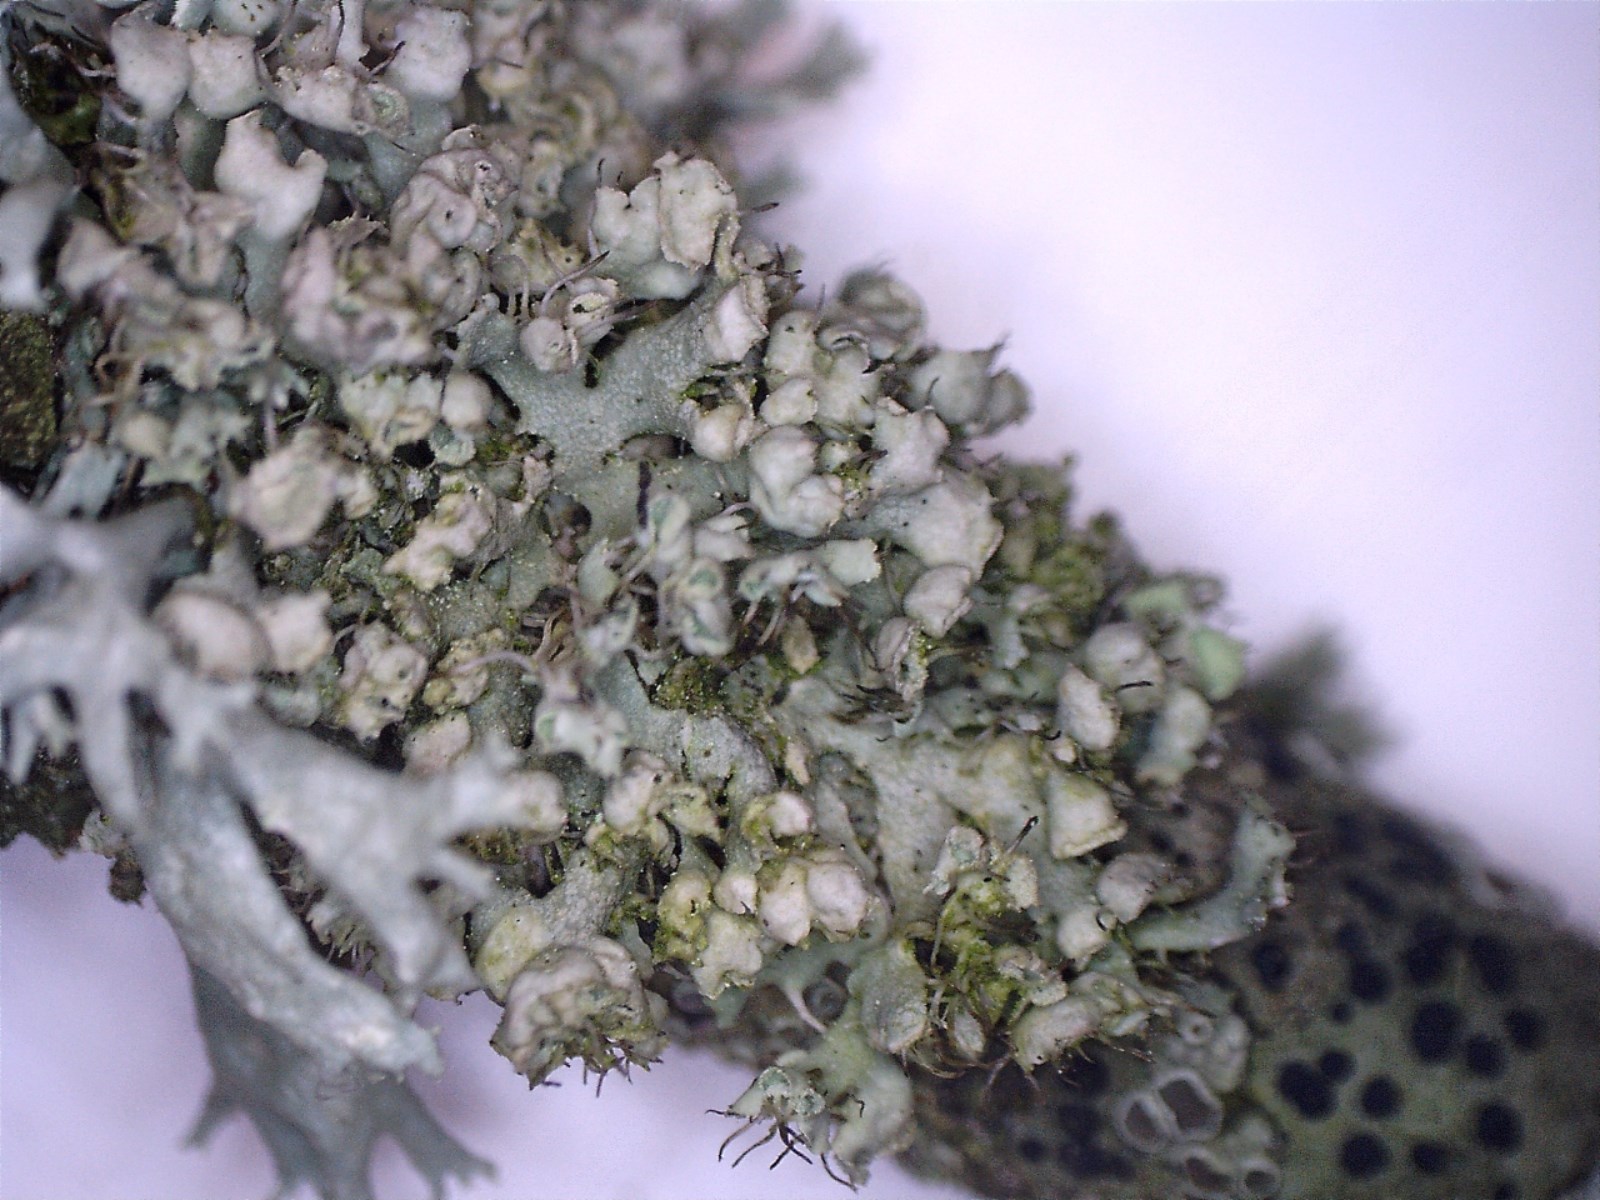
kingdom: Fungi
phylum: Ascomycota
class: Lecanoromycetes
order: Caliciales
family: Physciaceae
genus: Physcia
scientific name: Physcia adscendens
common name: hætte-rosetlav
